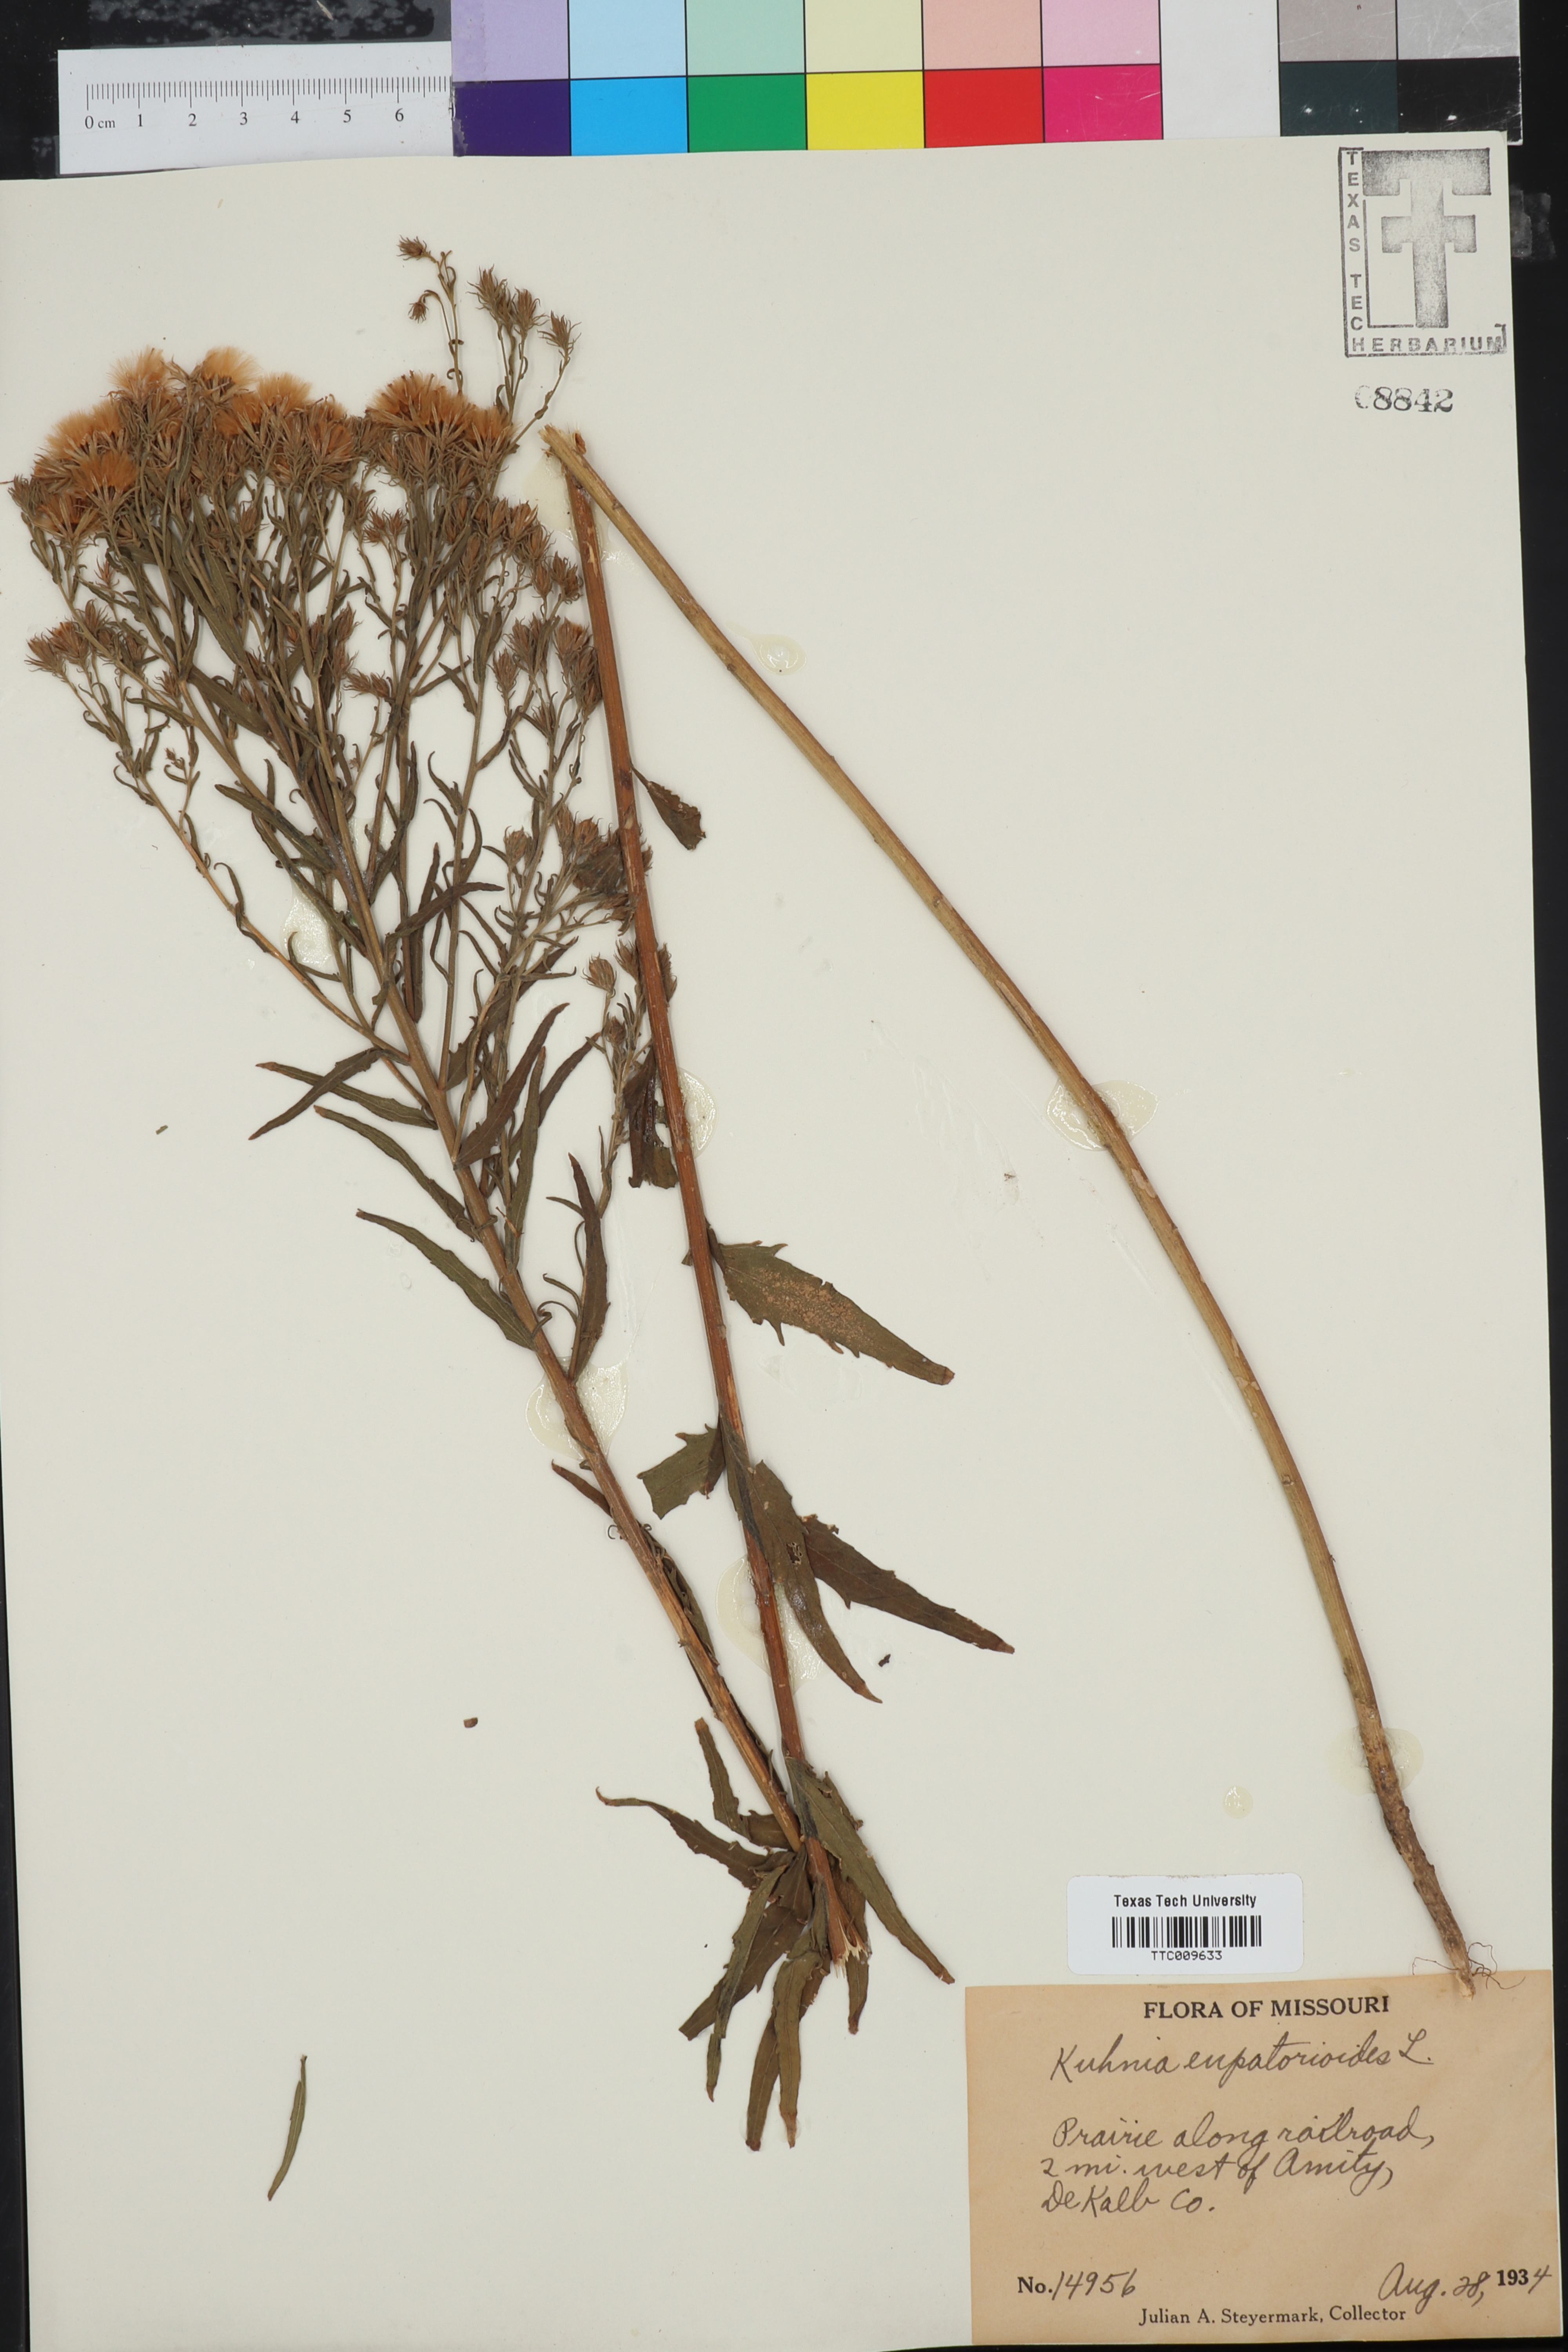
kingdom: Plantae
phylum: Tracheophyta
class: Magnoliopsida
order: Asterales
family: Asteraceae
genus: Brickellia
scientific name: Brickellia eupatorioides
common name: False boneset
